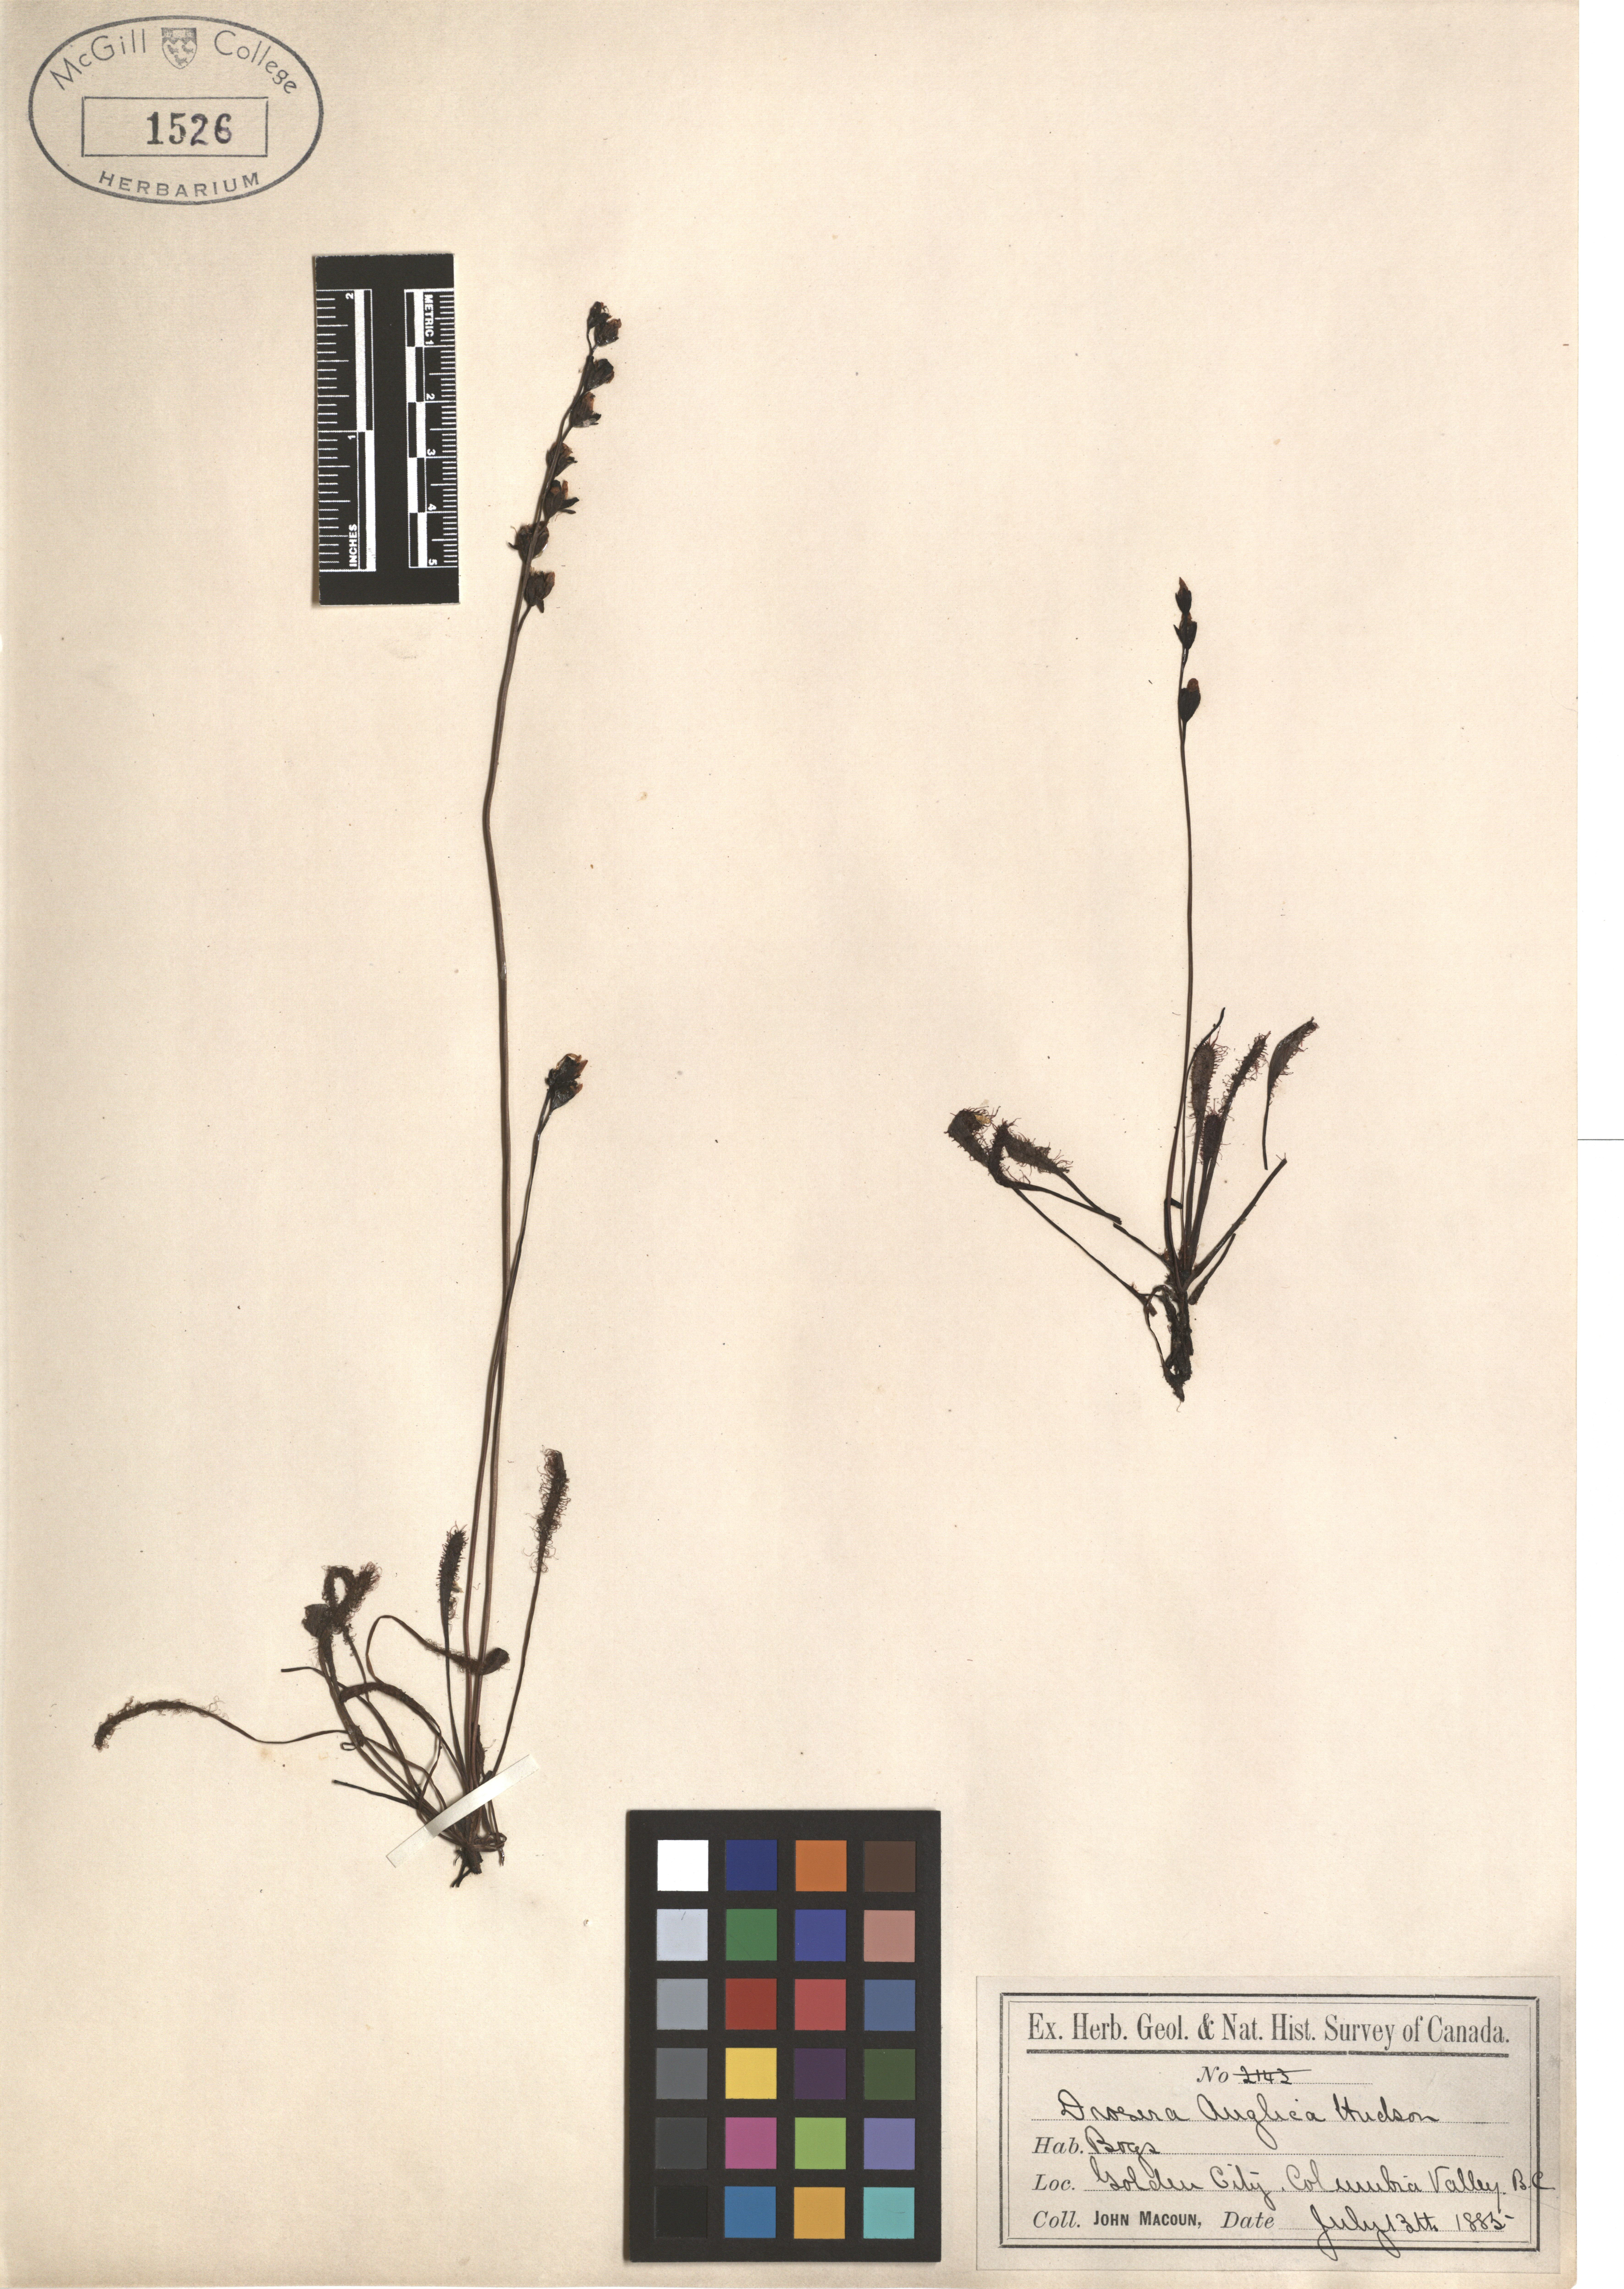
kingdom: Plantae
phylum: Tracheophyta
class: Magnoliopsida
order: Caryophyllales
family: Droseraceae
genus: Drosera
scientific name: Drosera anglica
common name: Great sundew
